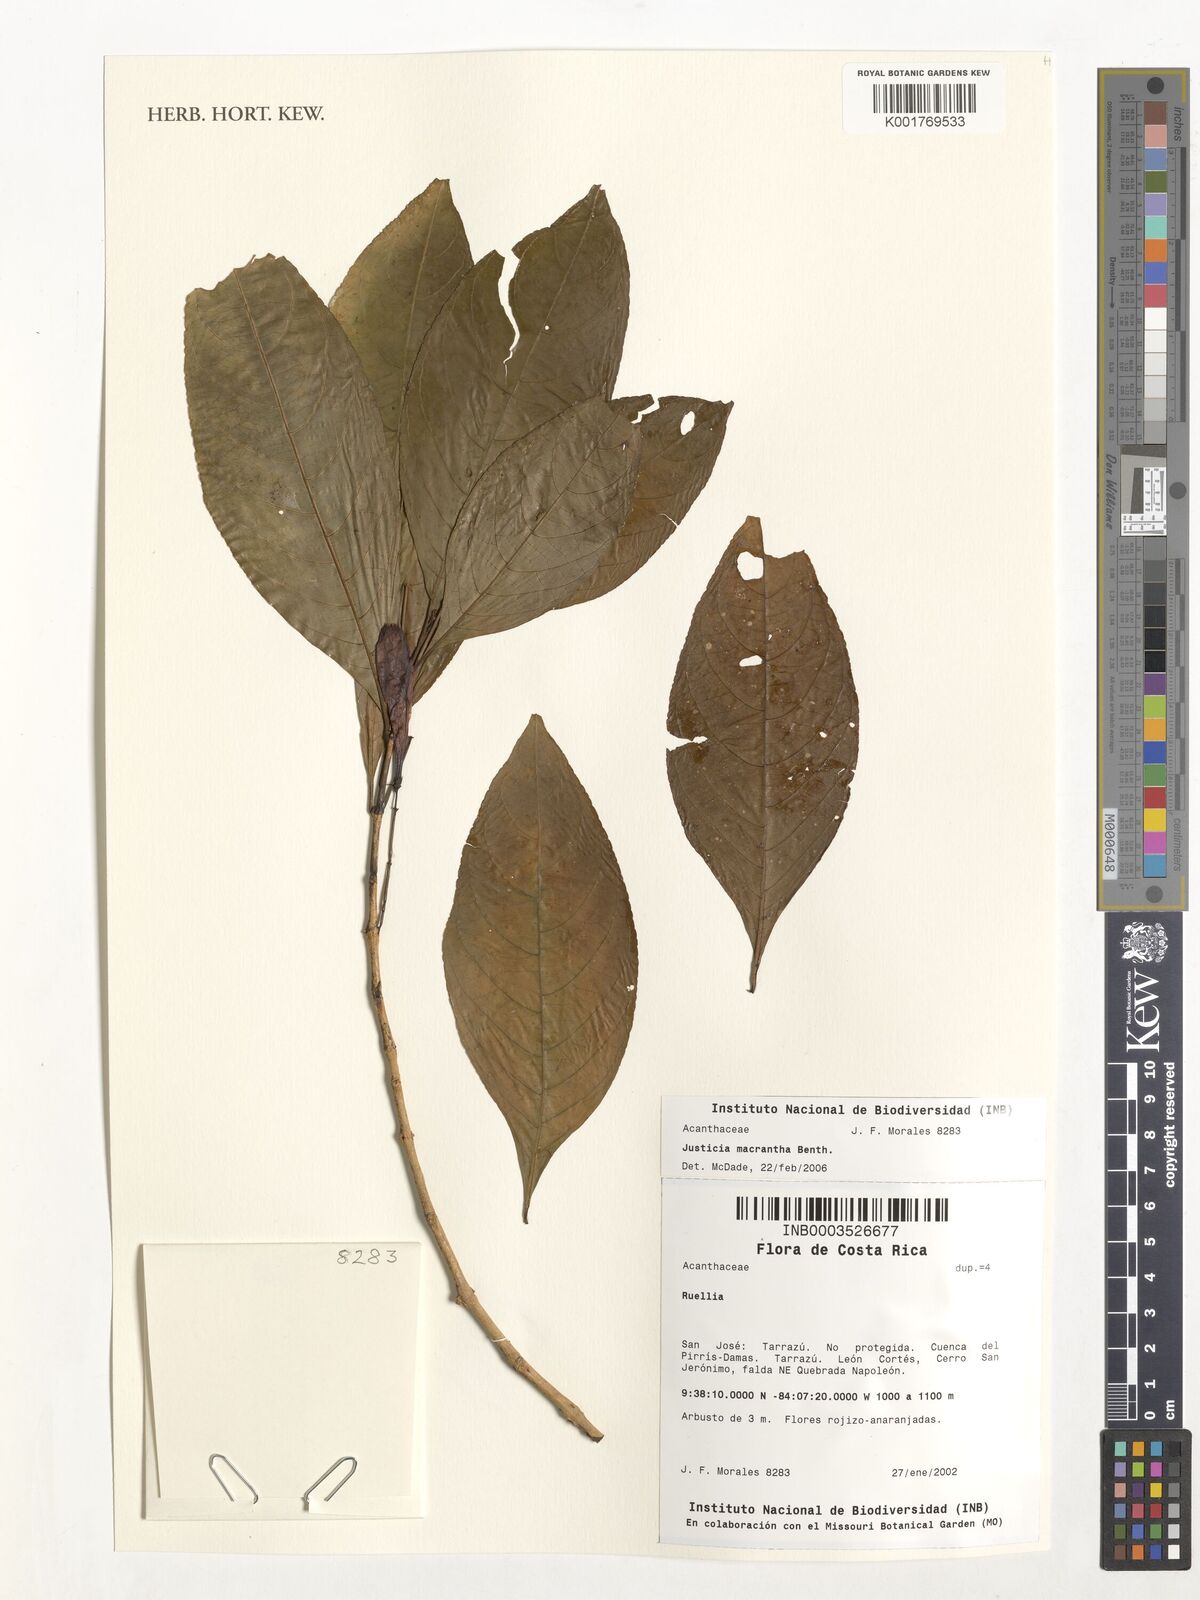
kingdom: Plantae
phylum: Tracheophyta
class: Magnoliopsida
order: Lamiales
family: Acanthaceae
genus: Justicia
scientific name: Justicia macrantha
